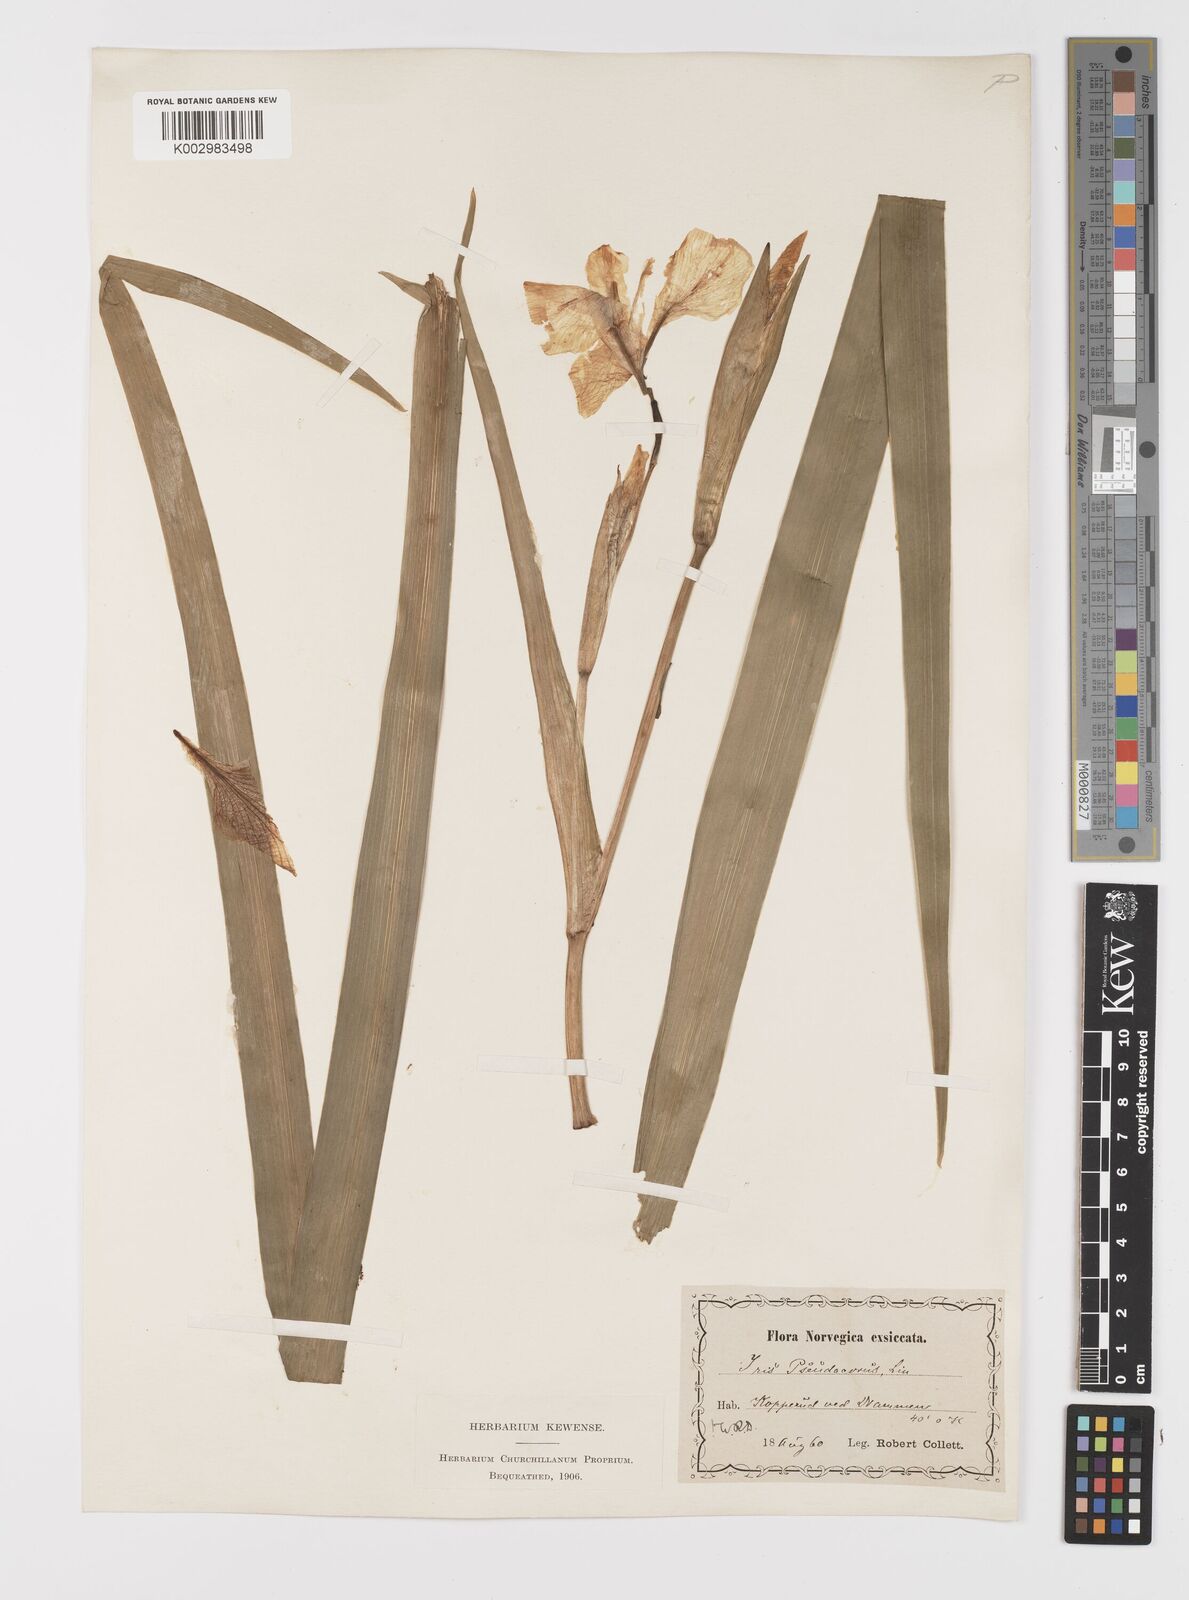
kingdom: Plantae
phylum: Tracheophyta
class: Liliopsida
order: Asparagales
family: Iridaceae
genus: Iris
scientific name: Iris pseudacorus
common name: Yellow flag
